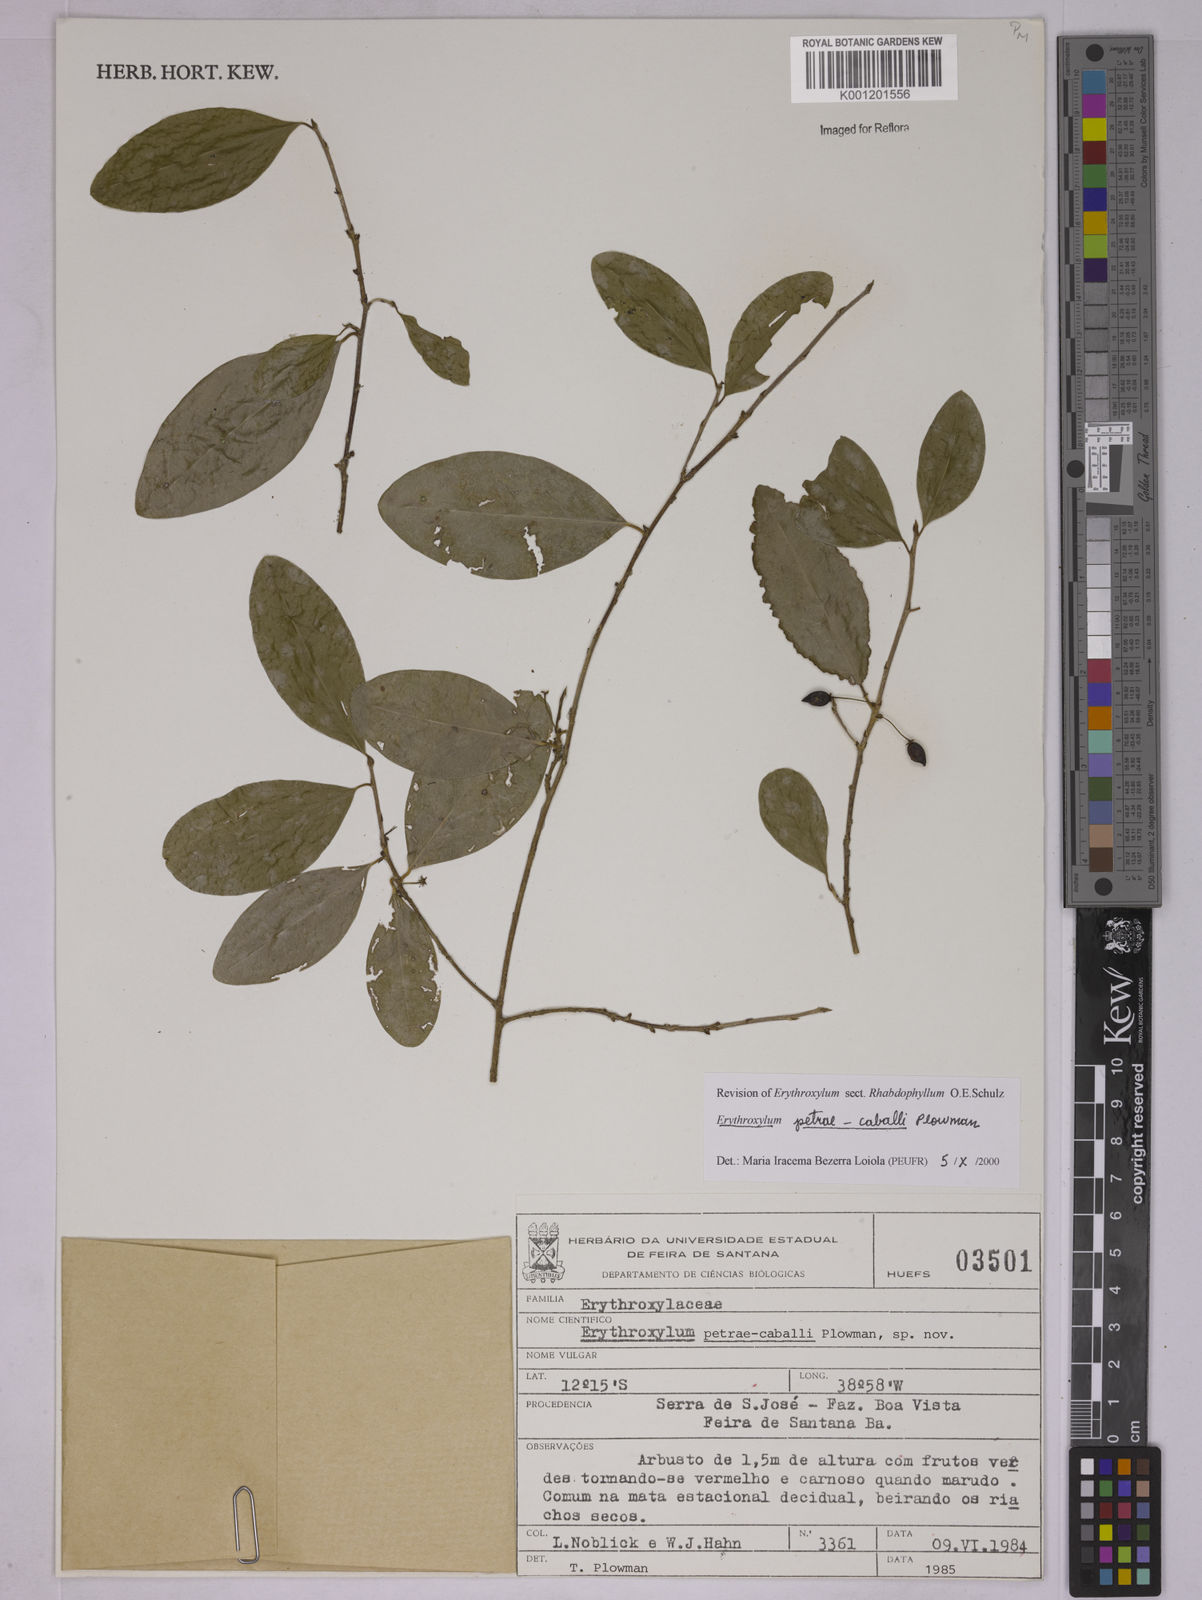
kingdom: Plantae
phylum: Tracheophyta
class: Magnoliopsida
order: Malpighiales
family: Erythroxylaceae
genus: Erythroxylum
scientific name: Erythroxylum petrae-caballi
